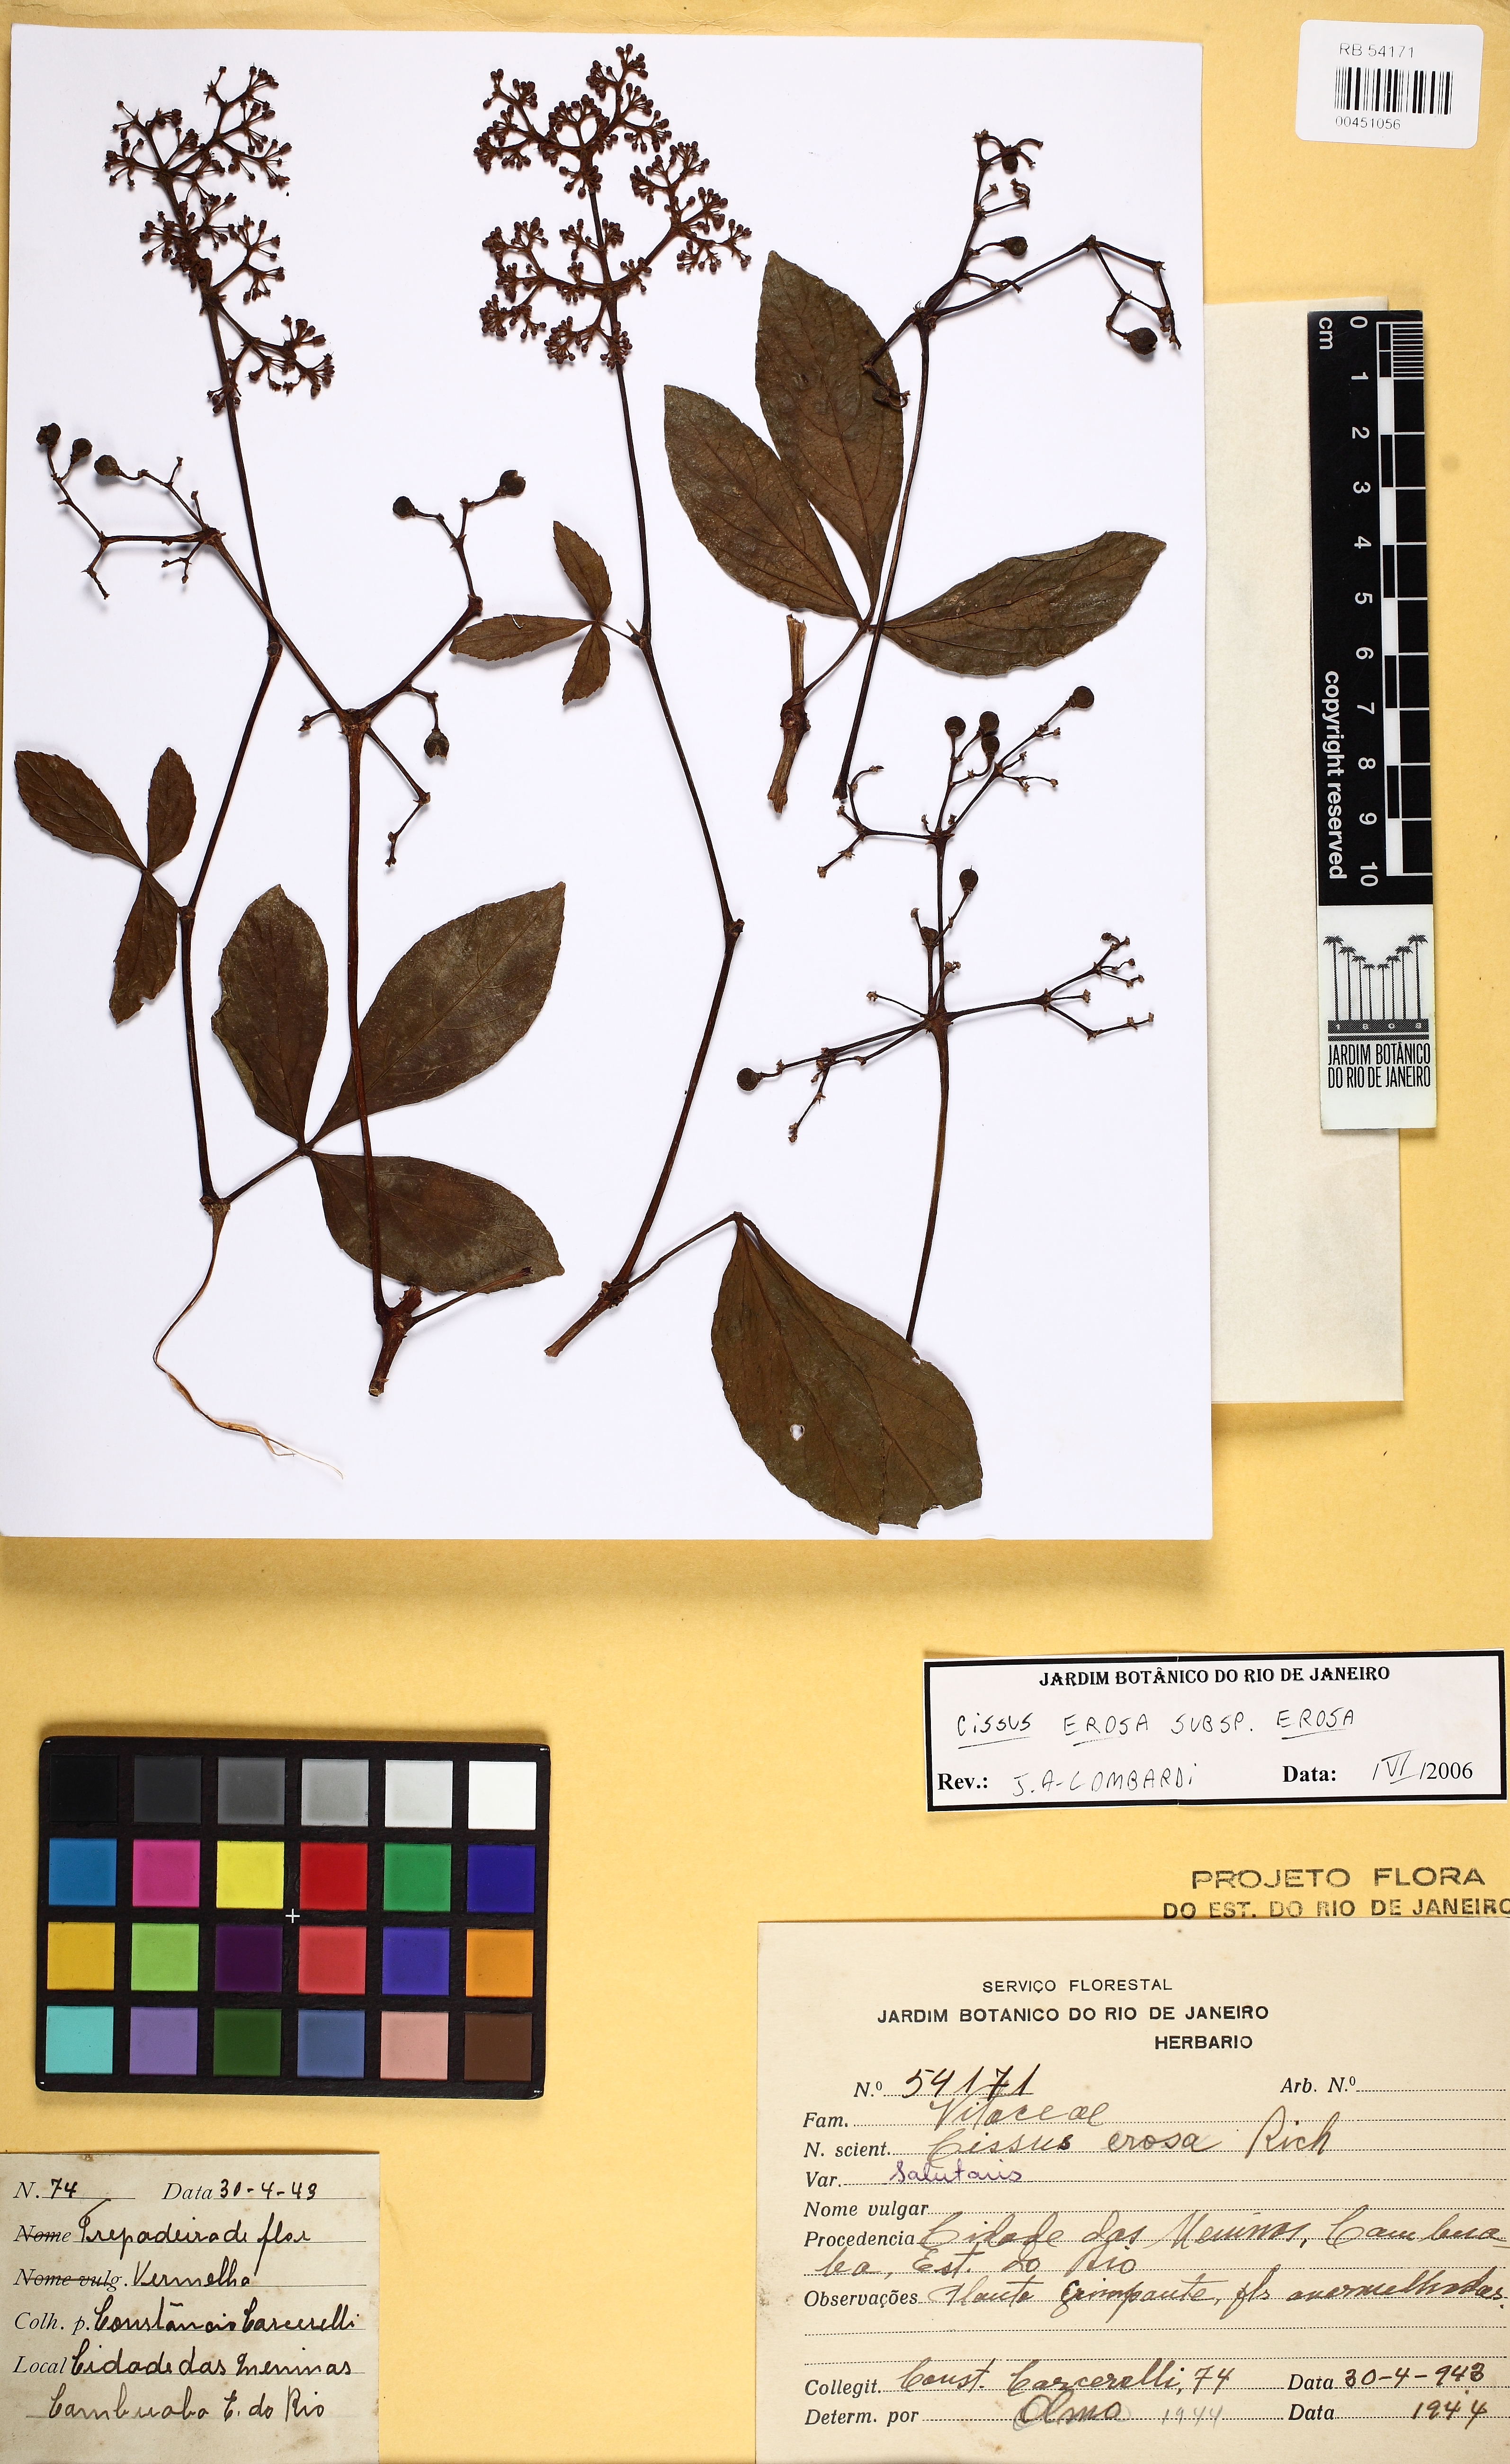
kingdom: Plantae
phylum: Tracheophyta
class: Magnoliopsida
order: Vitales
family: Vitaceae
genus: Cissus
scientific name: Cissus erosa
